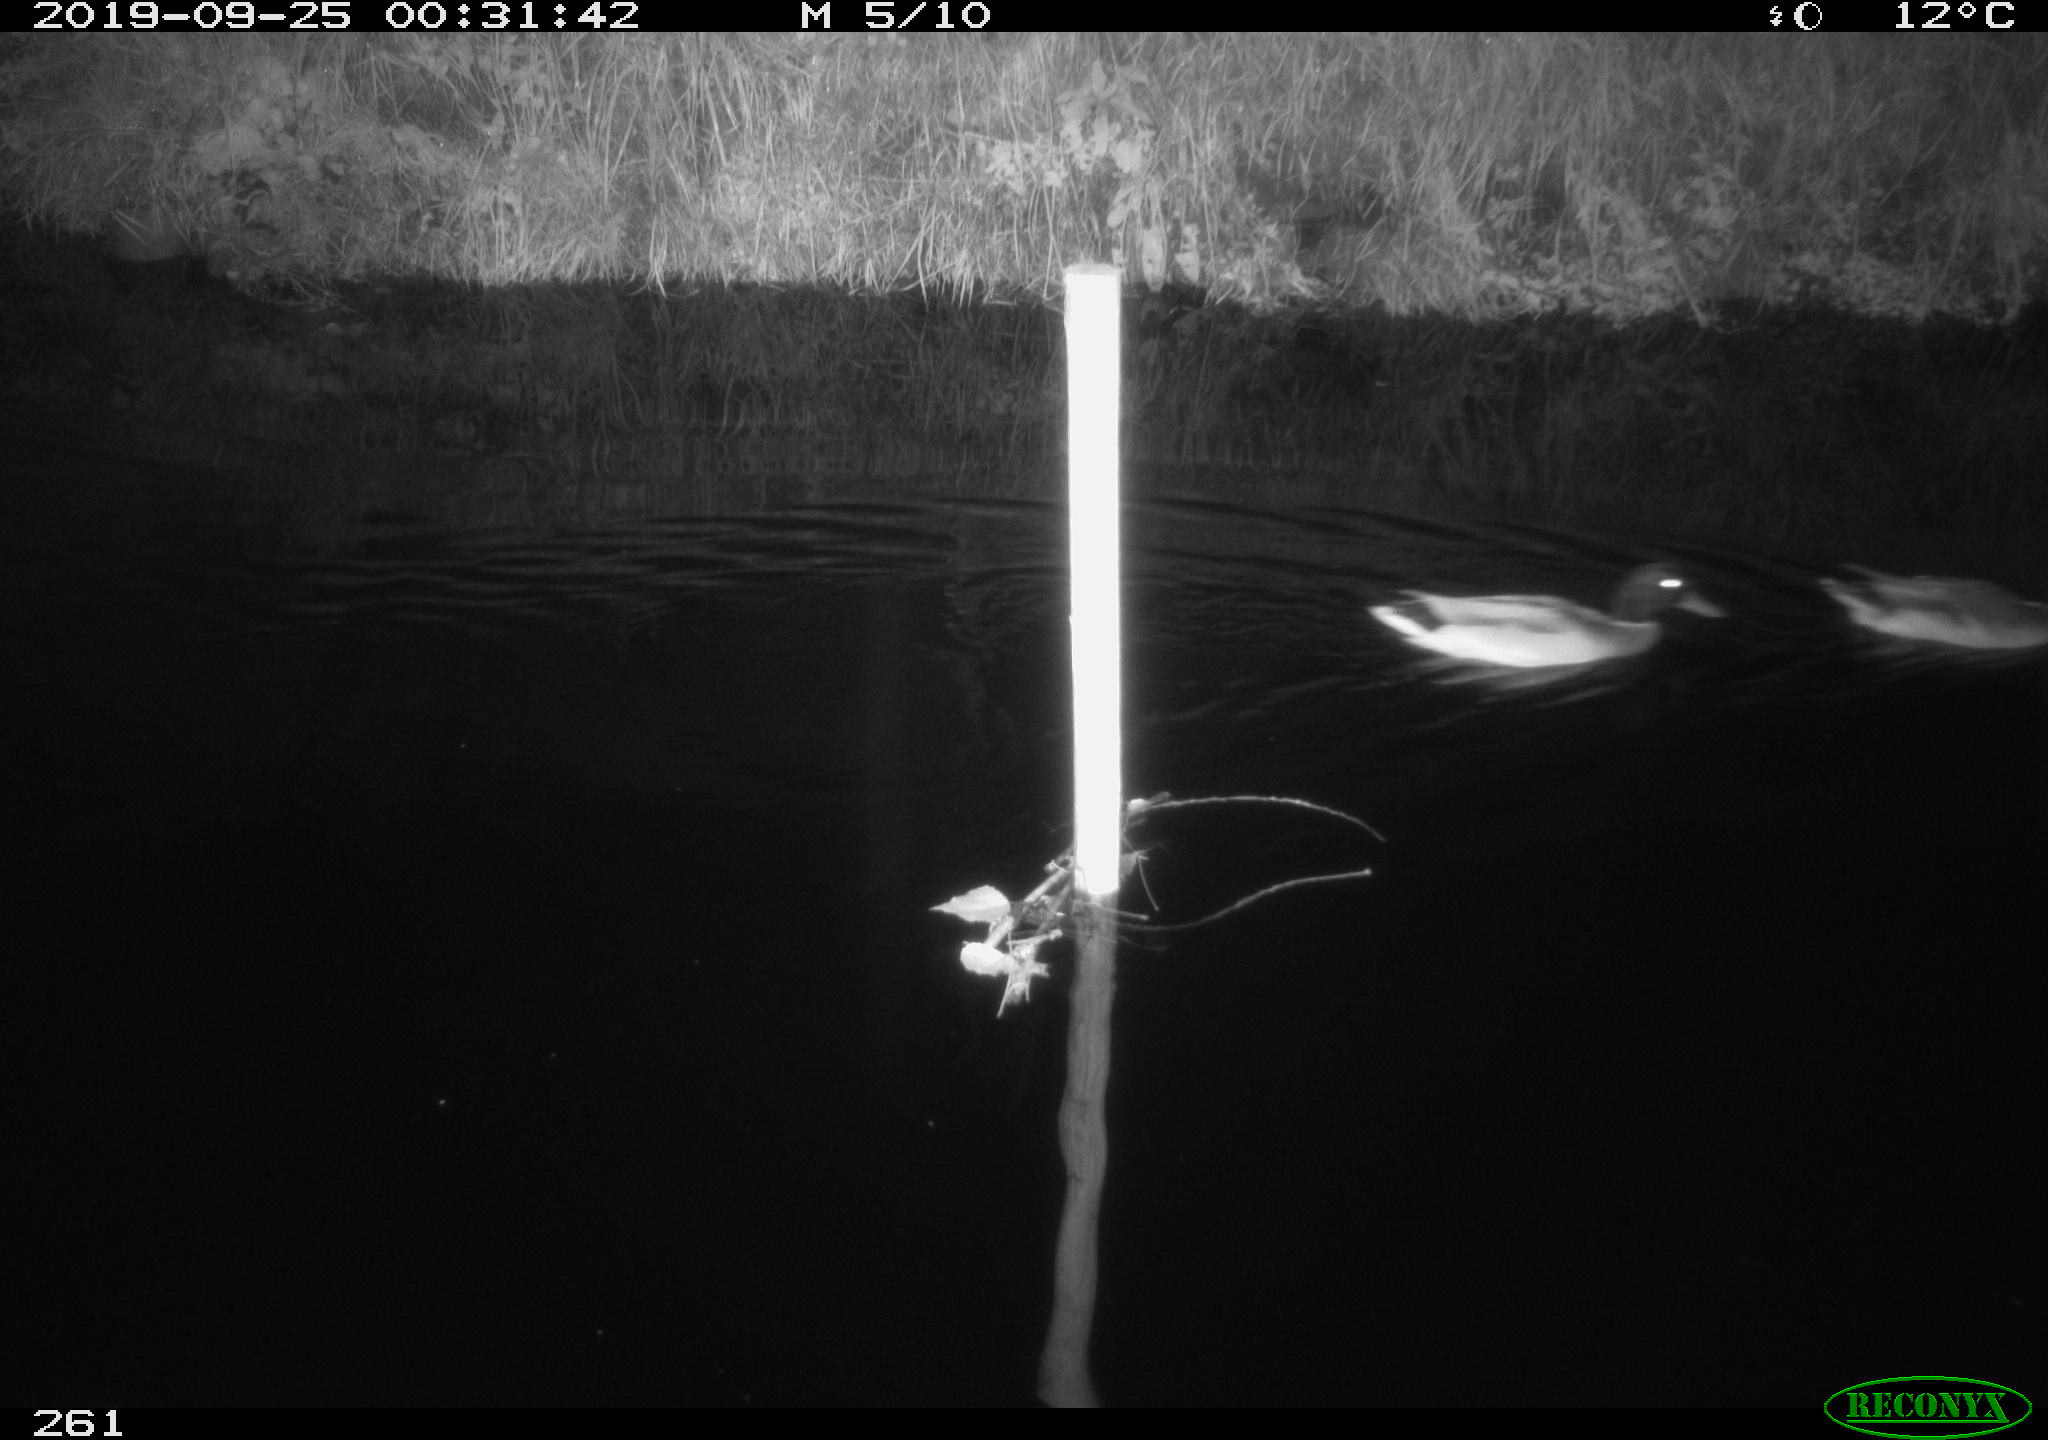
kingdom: Animalia
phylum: Chordata
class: Aves
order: Anseriformes
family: Anatidae
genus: Anas
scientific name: Anas platyrhynchos
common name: Mallard
